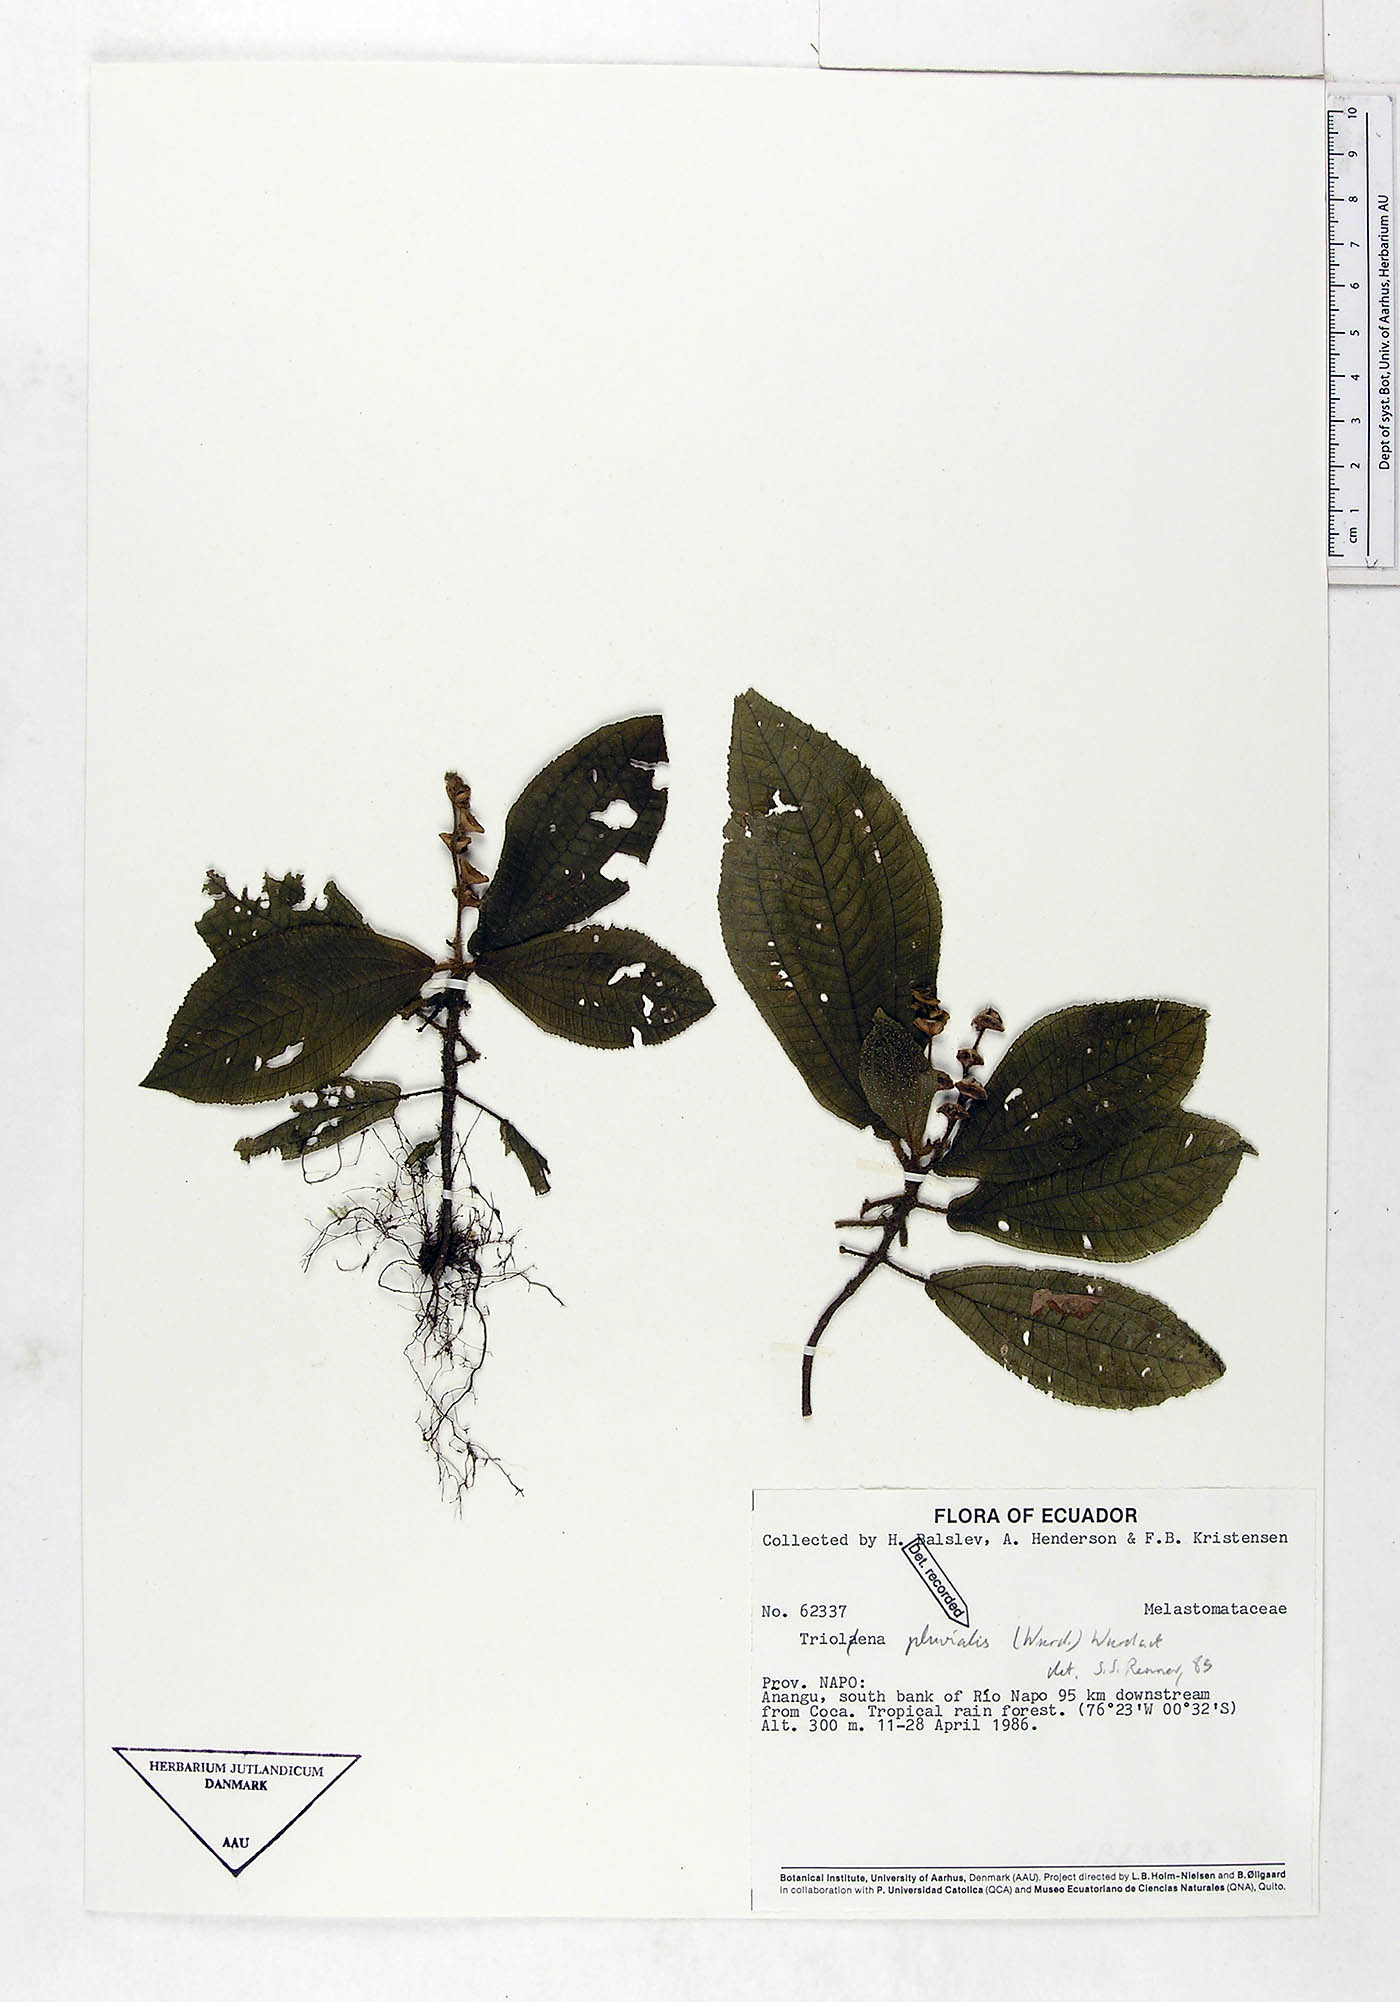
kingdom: Plantae
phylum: Tracheophyta
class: Magnoliopsida
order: Myrtales
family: Melastomataceae
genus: Triolena
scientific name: Triolena pluvialis
